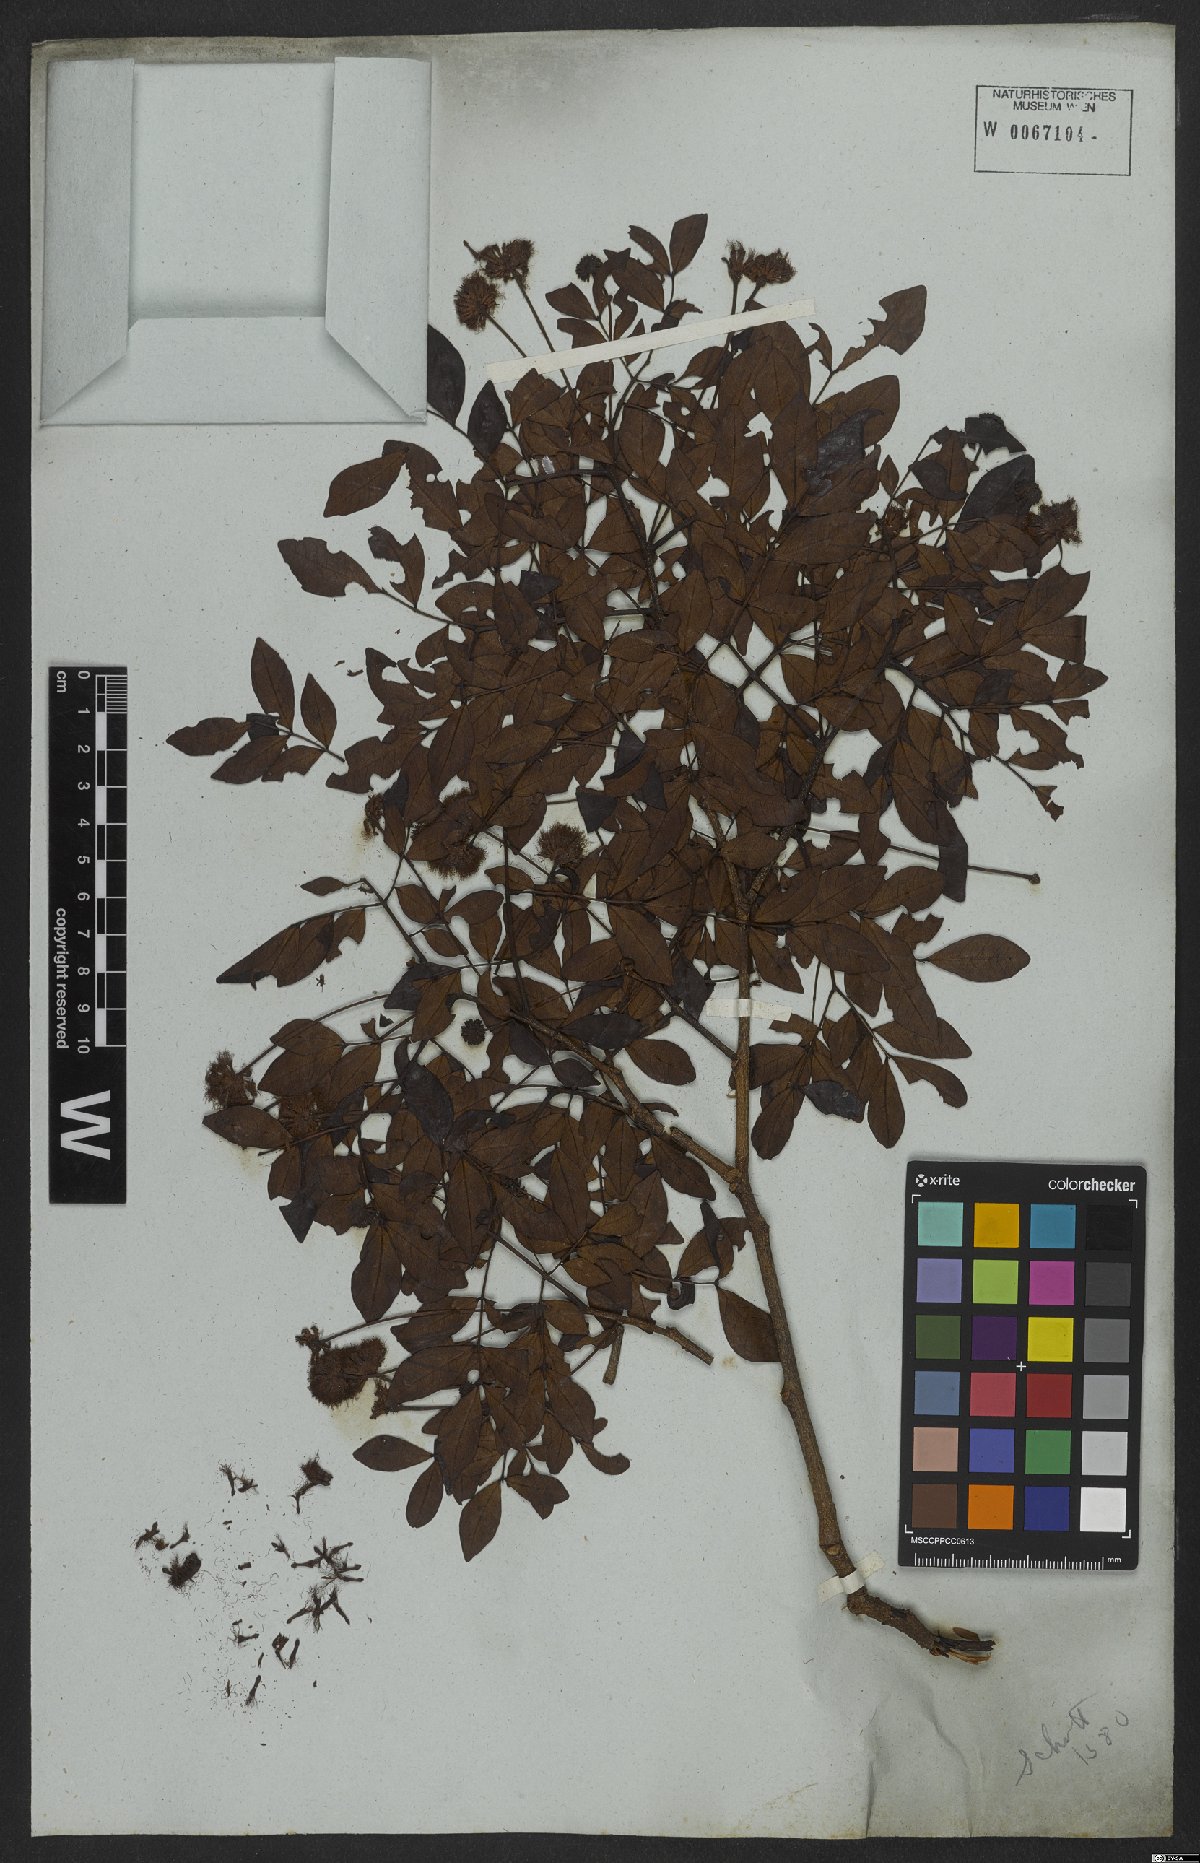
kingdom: Plantae
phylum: Tracheophyta
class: Magnoliopsida
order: Fabales
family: Fabaceae
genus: Abarema
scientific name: Abarema cochliacarpos
